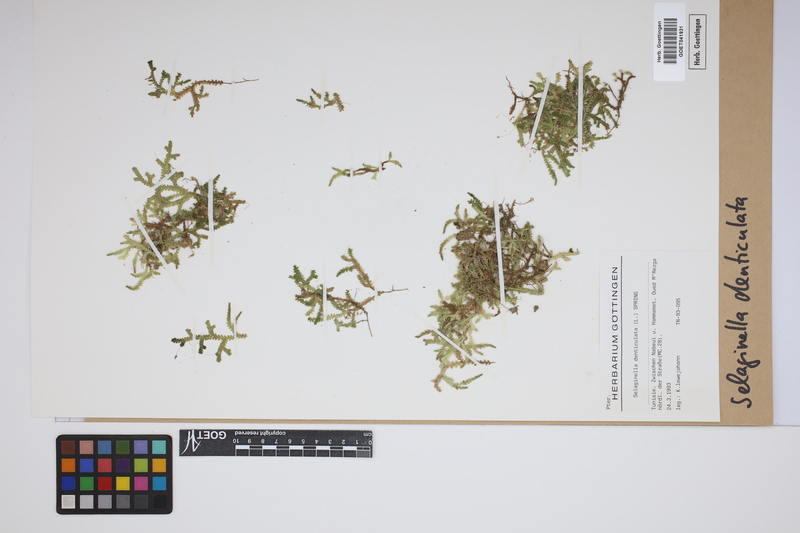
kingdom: Plantae
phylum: Tracheophyta
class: Lycopodiopsida
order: Selaginellales
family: Selaginellaceae
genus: Selaginella
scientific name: Selaginella denticulata
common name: Toothed-leaved clubmoss
